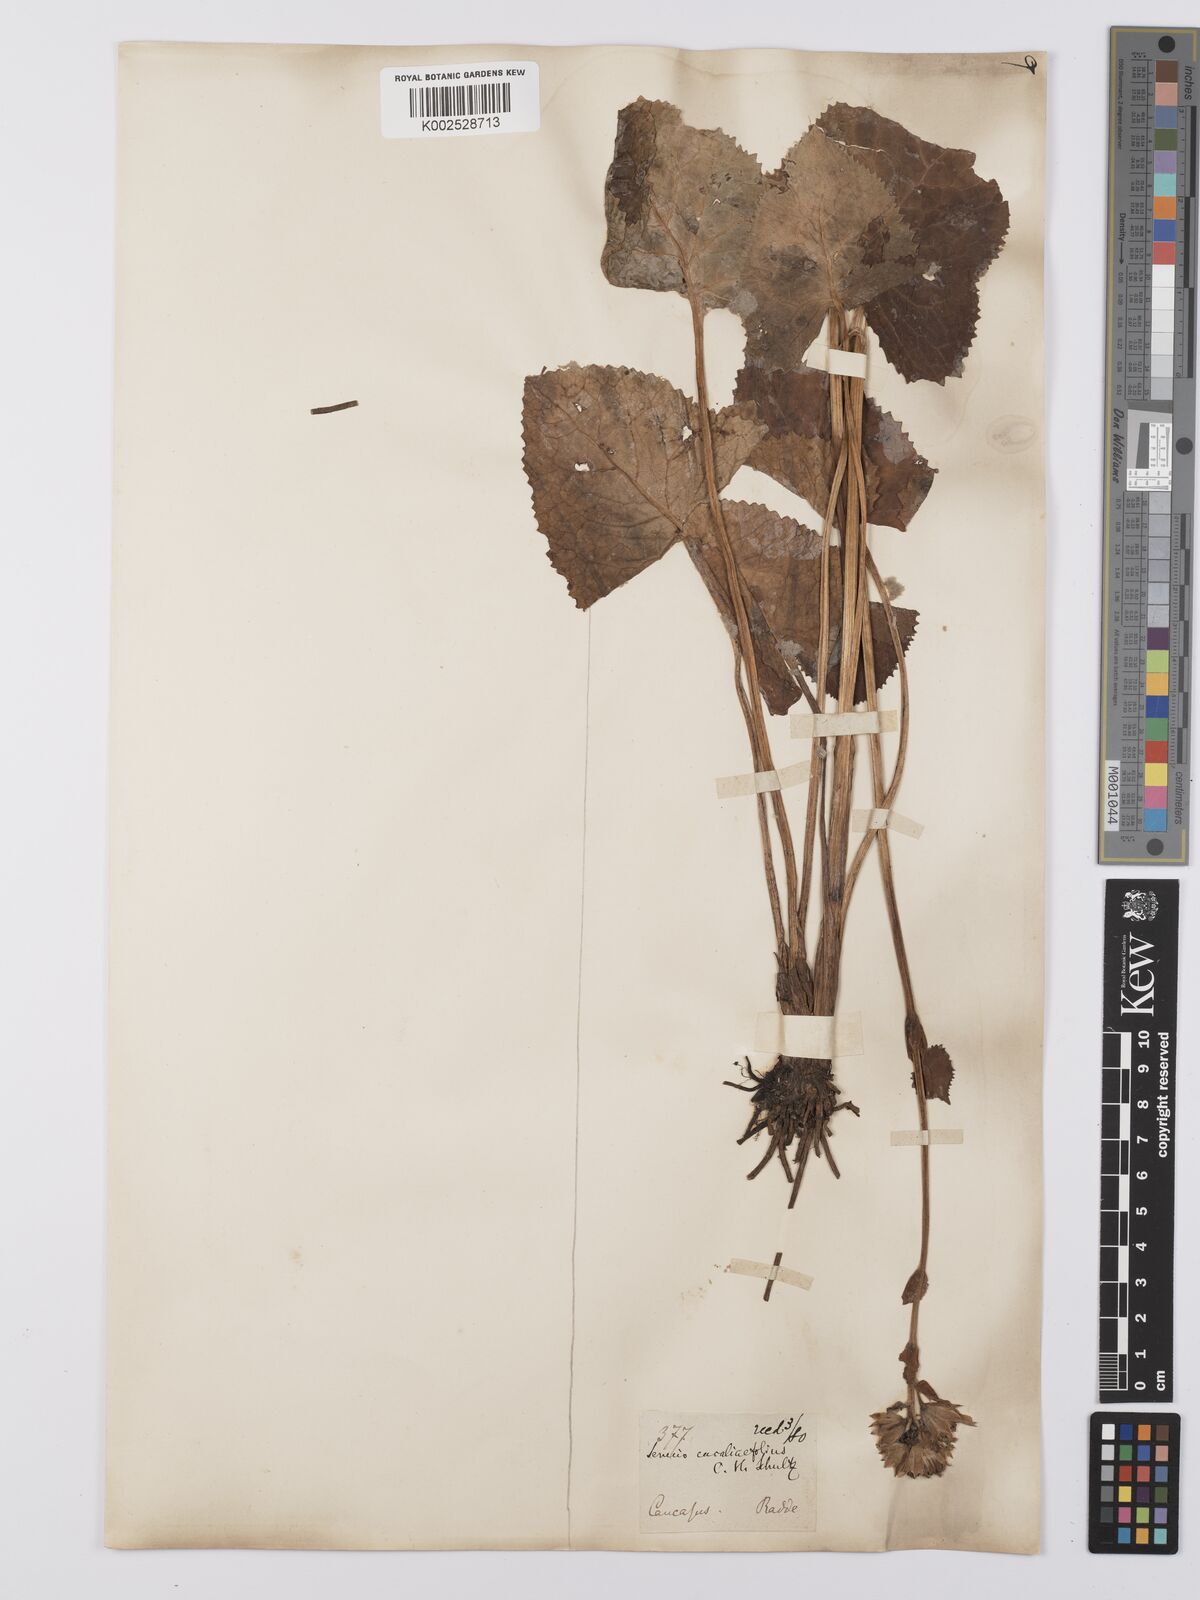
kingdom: Plantae
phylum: Tracheophyta
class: Magnoliopsida
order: Asterales
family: Asteraceae
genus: Ligularia
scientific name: Ligularia sibirica
